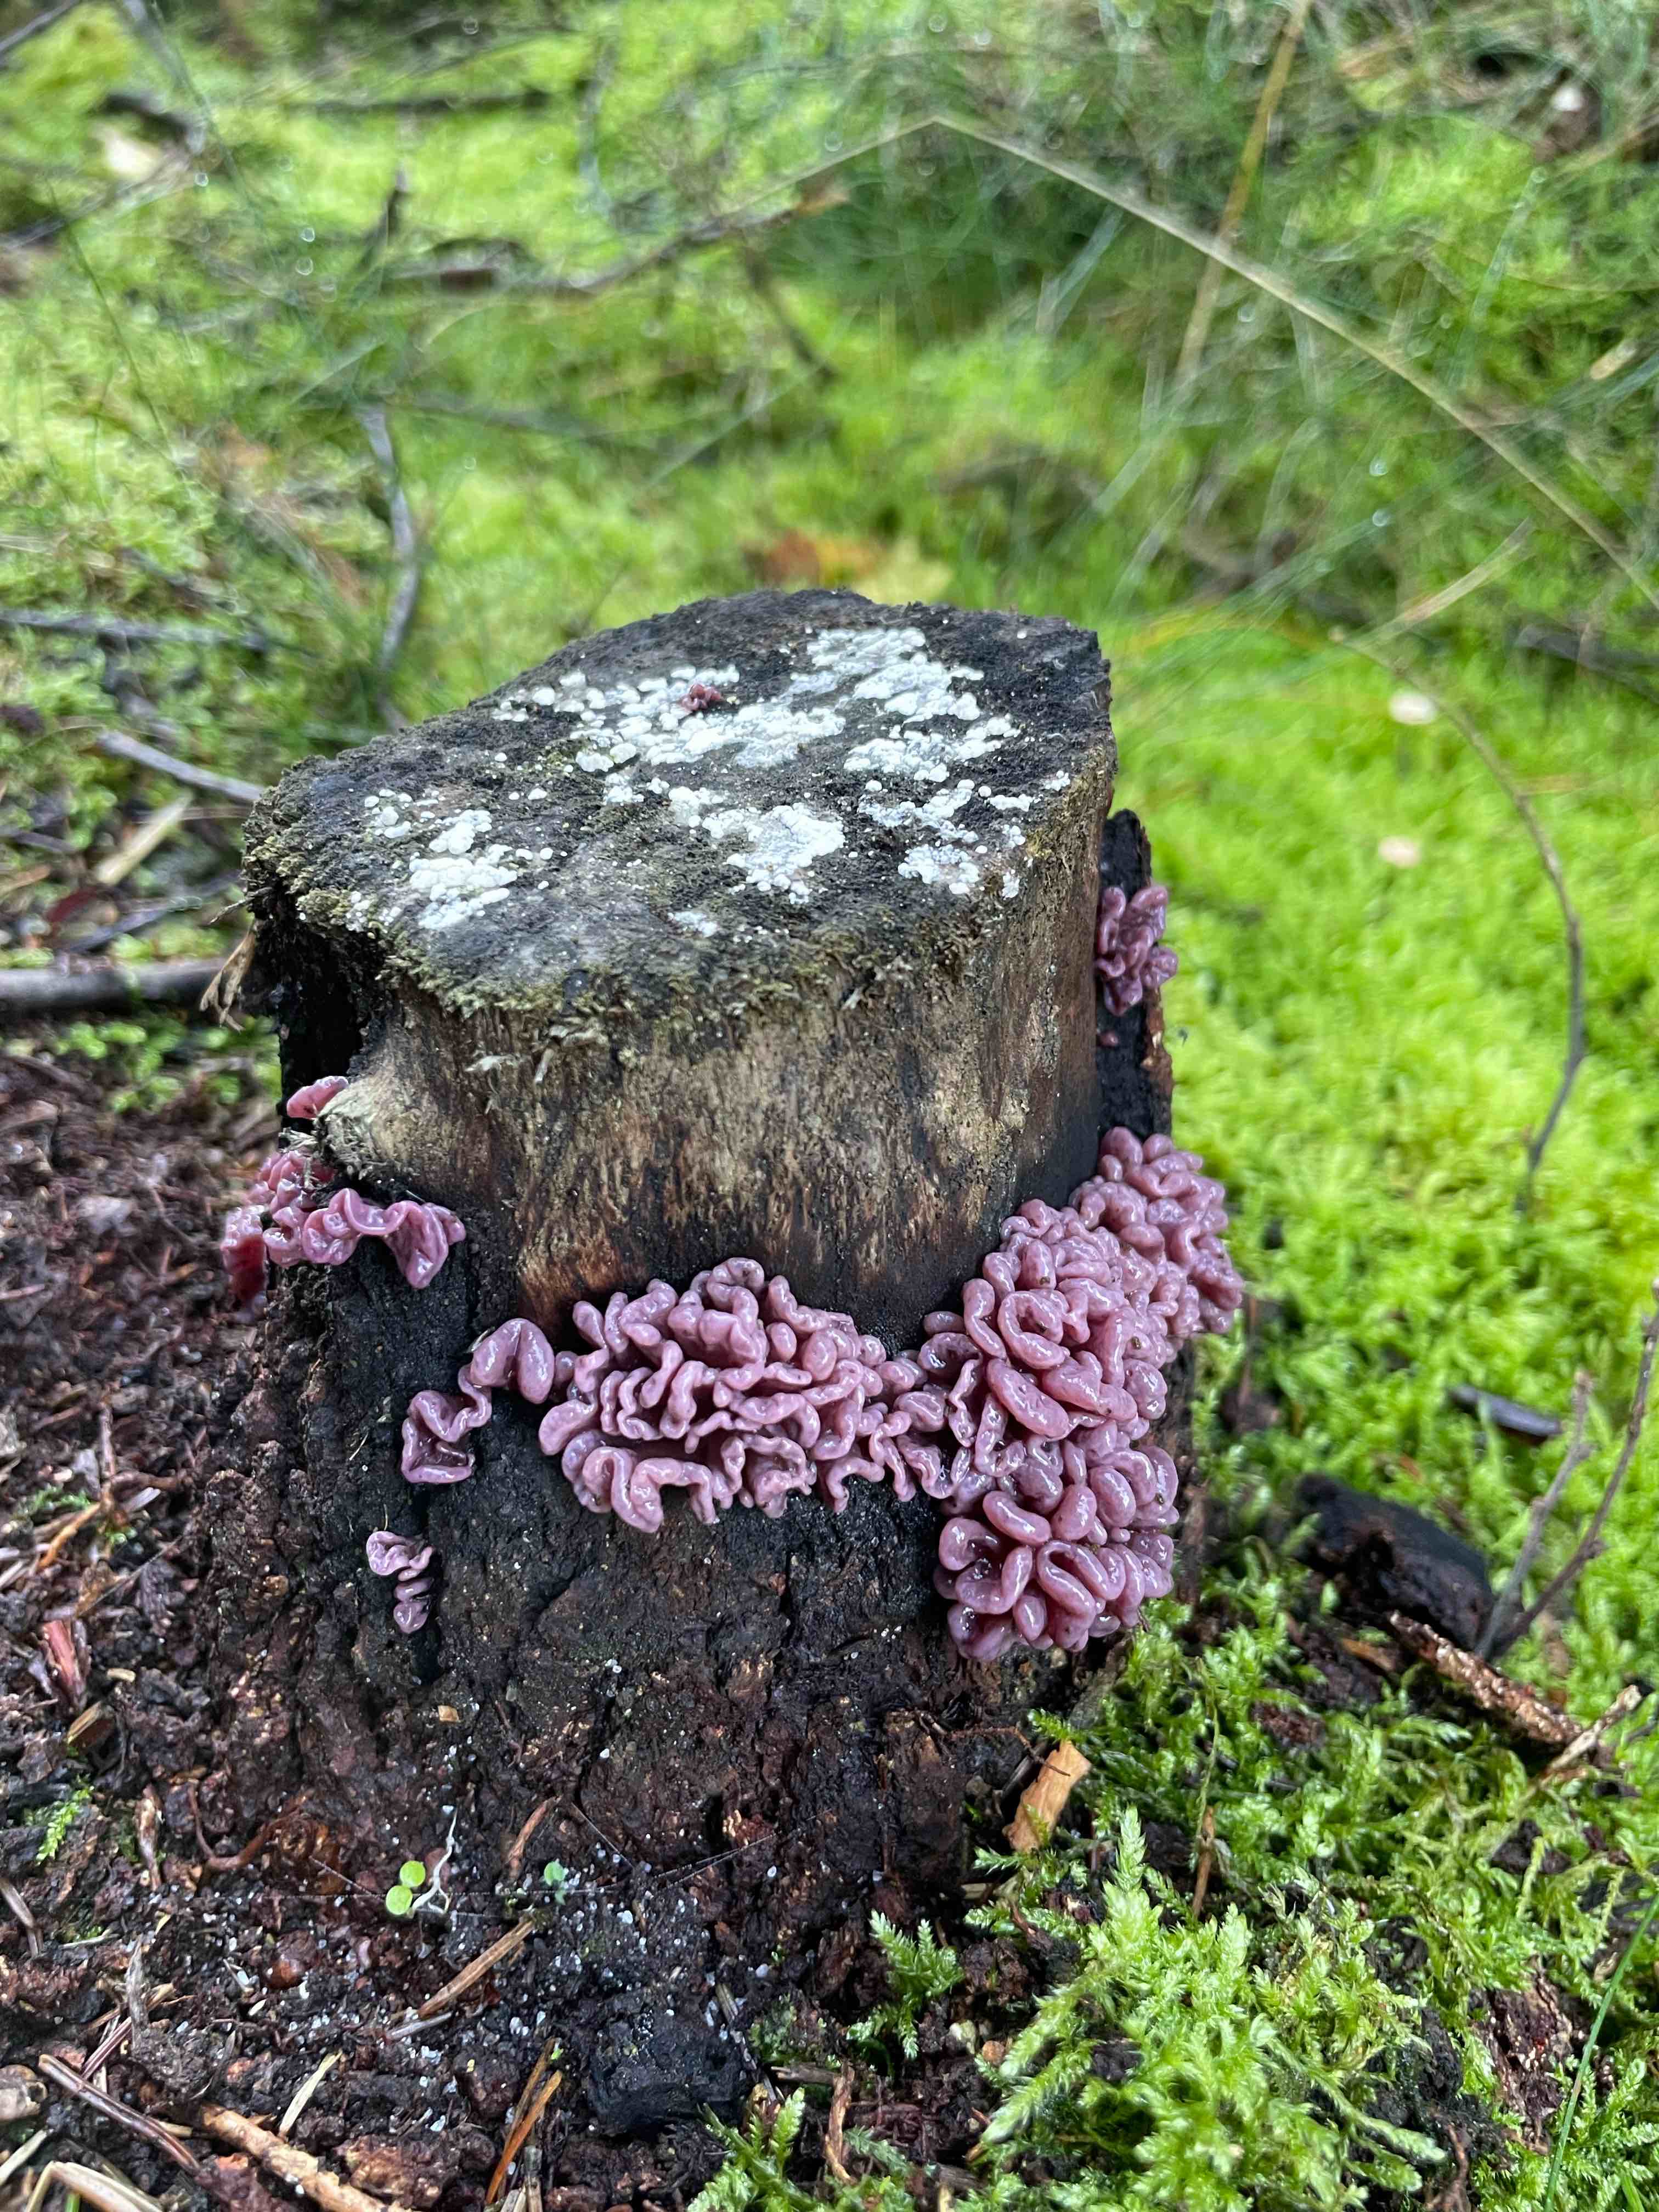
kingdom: Fungi
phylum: Ascomycota
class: Leotiomycetes
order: Helotiales
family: Gelatinodiscaceae
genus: Ascocoryne
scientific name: Ascocoryne sarcoides
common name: rødlilla sejskive
